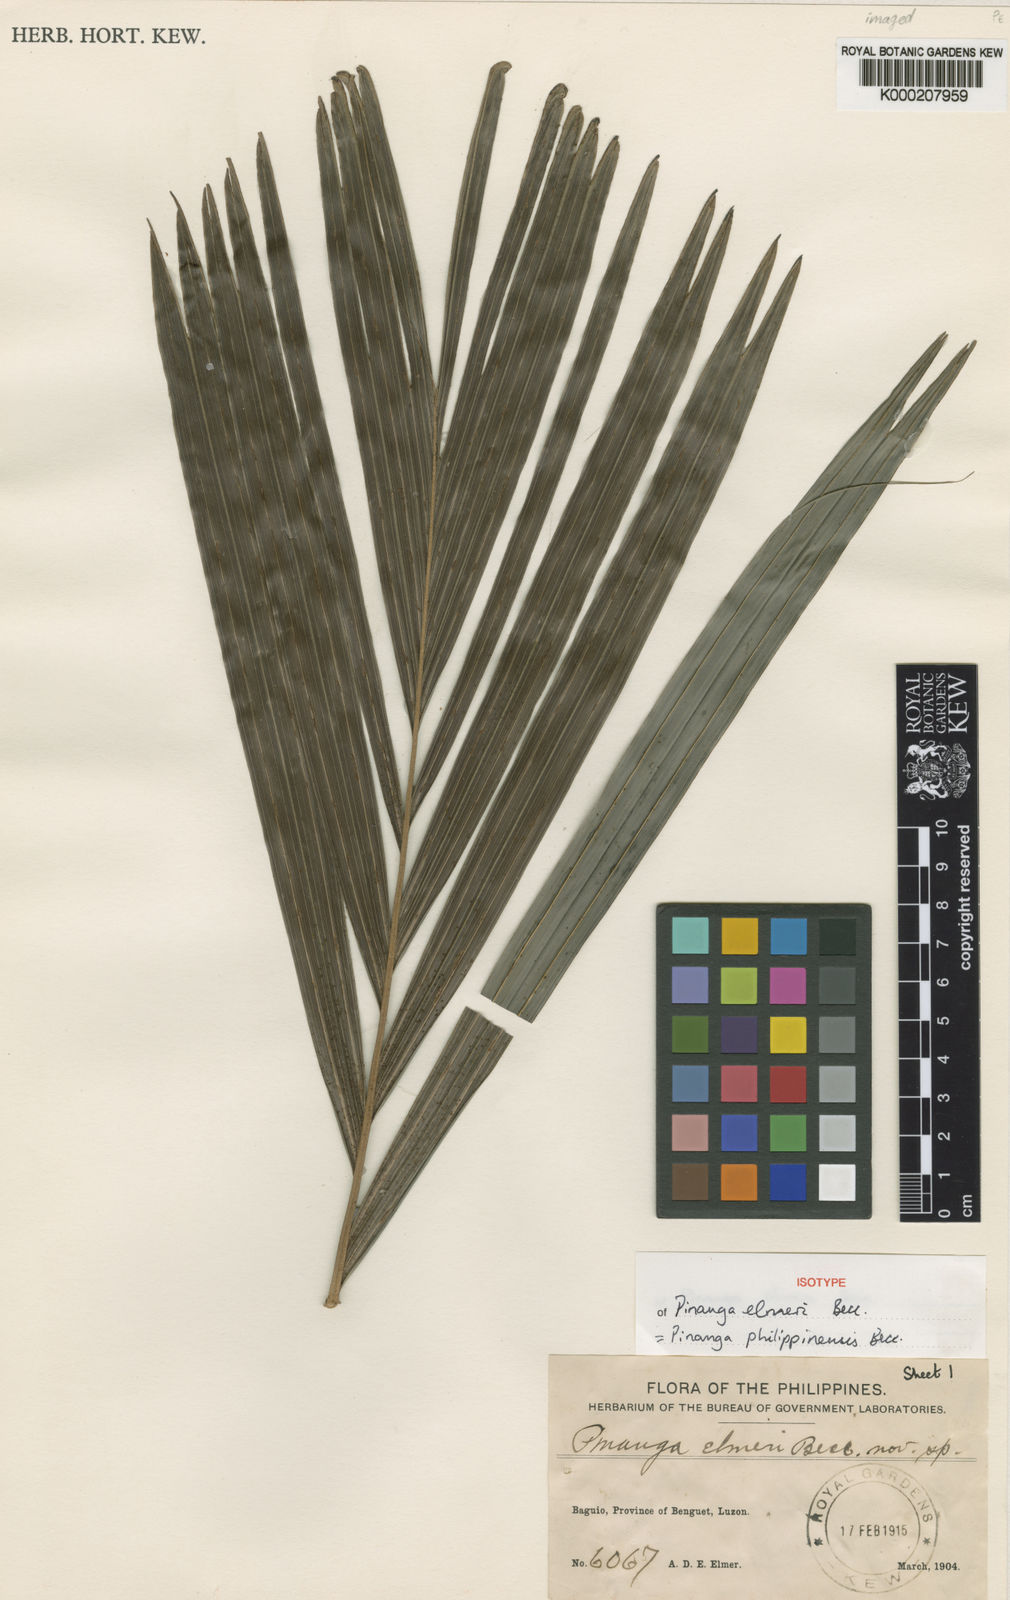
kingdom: Plantae
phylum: Tracheophyta
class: Liliopsida
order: Arecales
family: Arecaceae
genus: Pinanga
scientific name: Pinanga philippinensis
